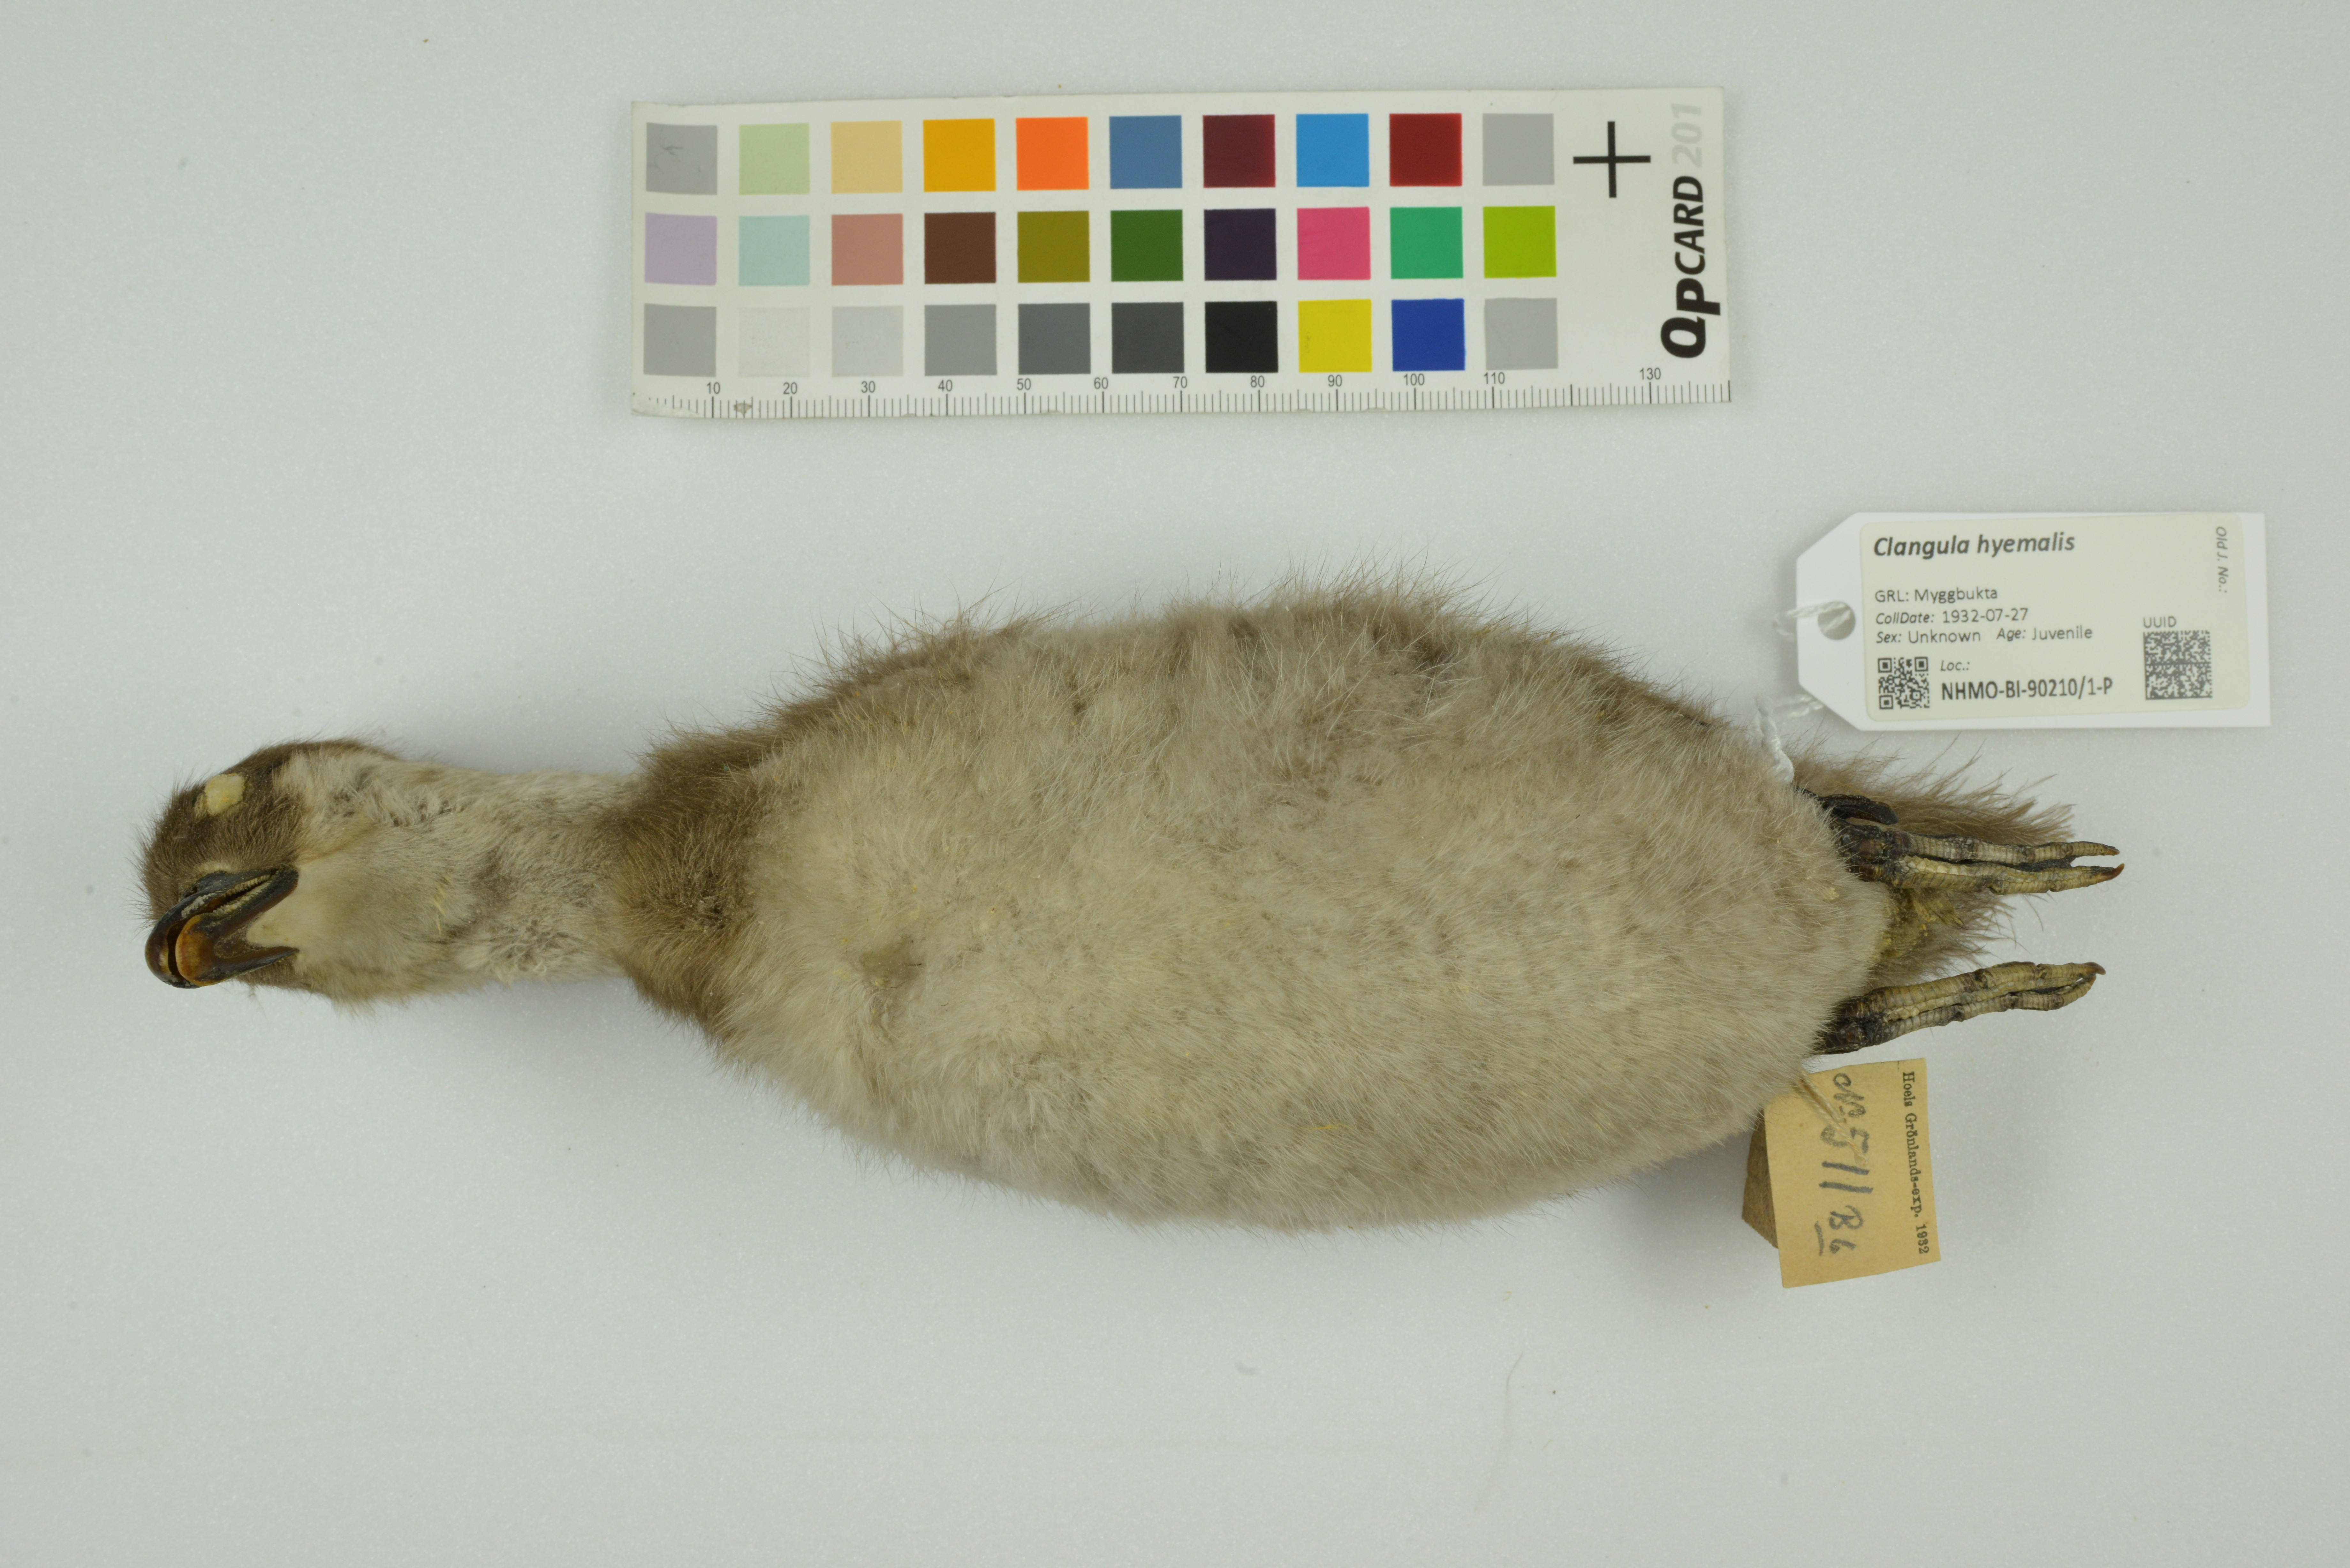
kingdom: Animalia
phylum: Chordata
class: Aves
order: Anseriformes
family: Anatidae
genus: Clangula
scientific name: Clangula hyemalis
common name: Long-tailed duck
